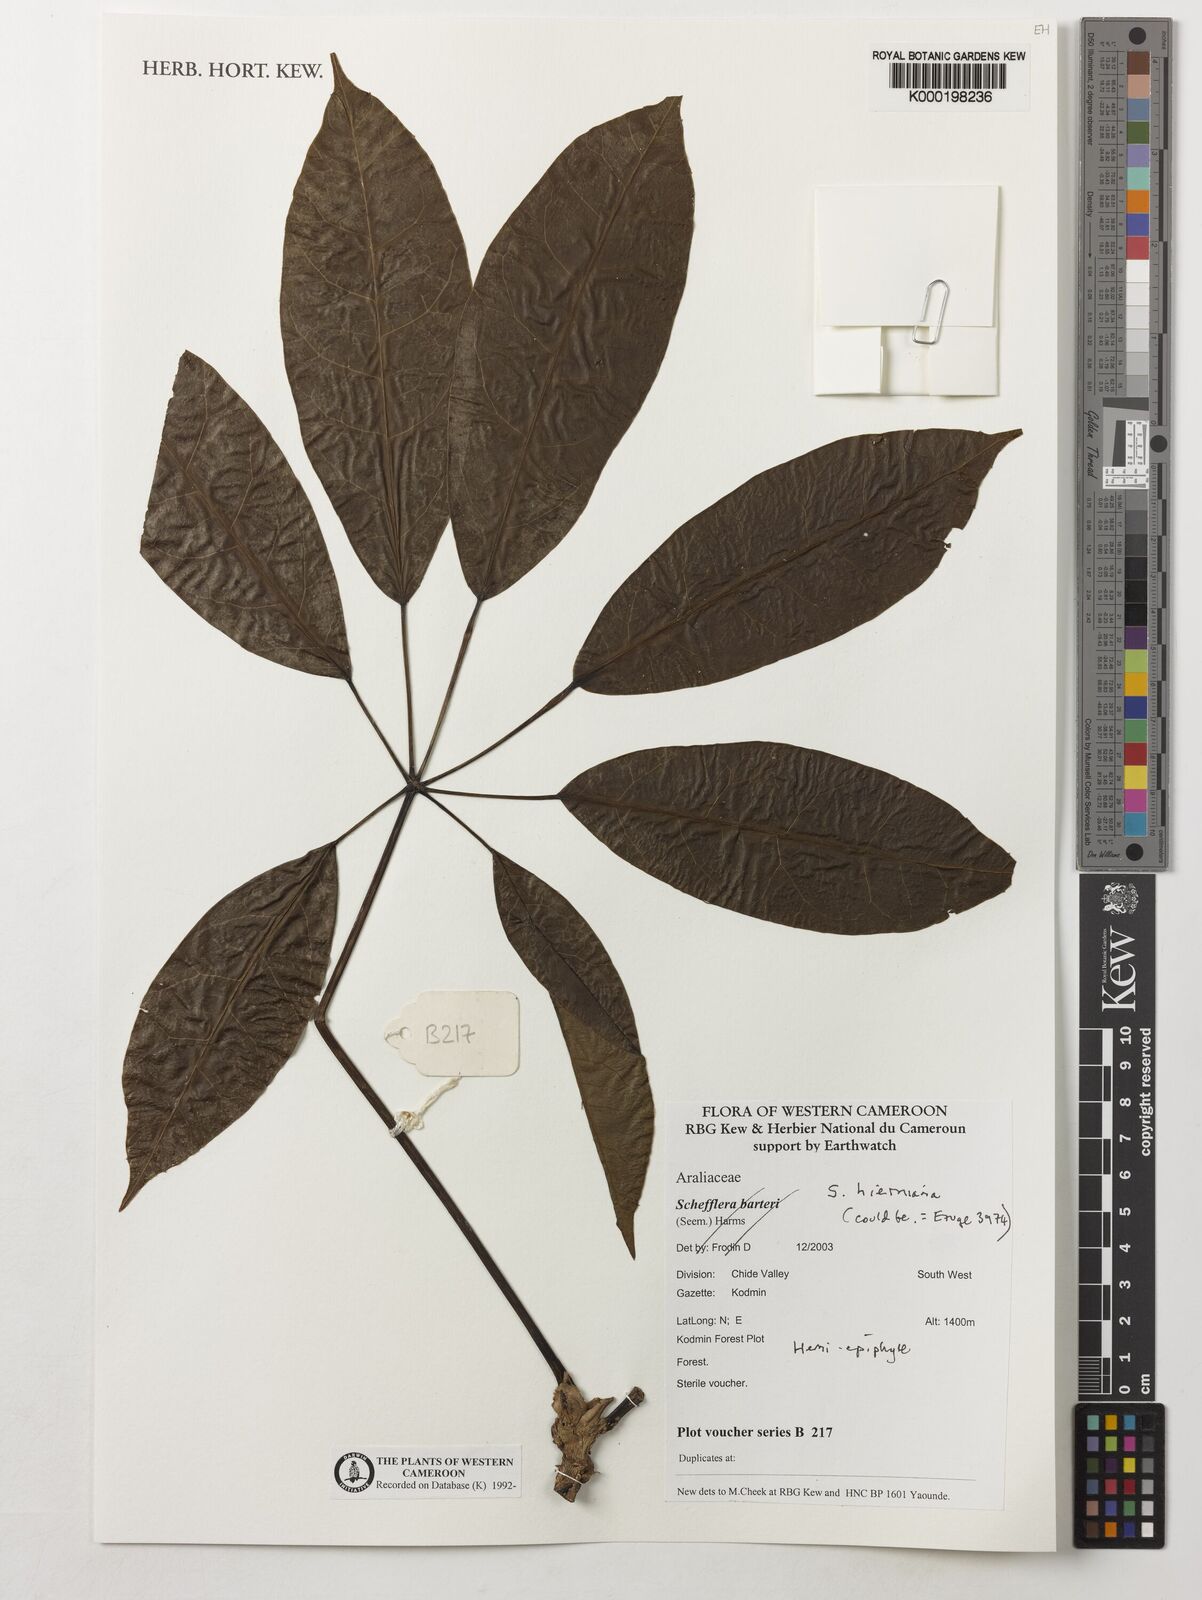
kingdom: Plantae
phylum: Tracheophyta
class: Magnoliopsida
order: Apiales
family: Araliaceae
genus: Astropanax
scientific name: Astropanax barteri
